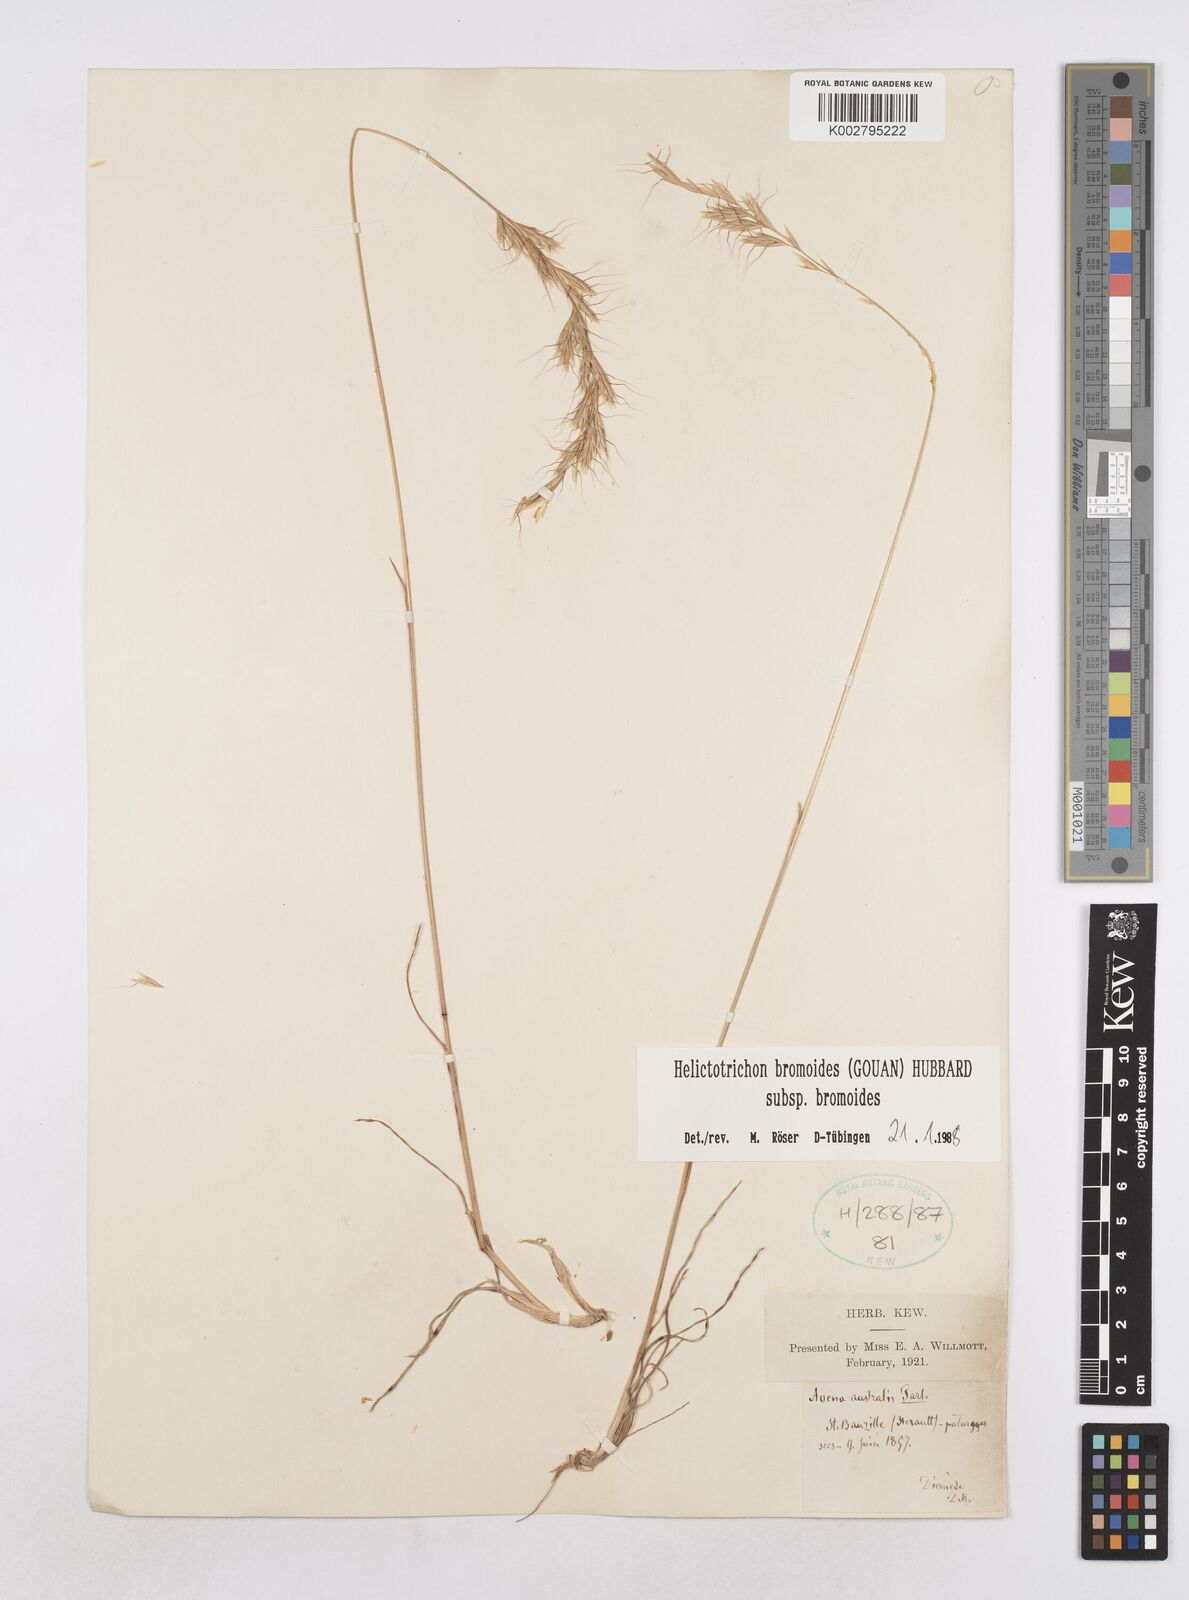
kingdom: Plantae
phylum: Tracheophyta
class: Liliopsida
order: Poales
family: Poaceae
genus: Helictochloa
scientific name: Helictochloa bromoides
